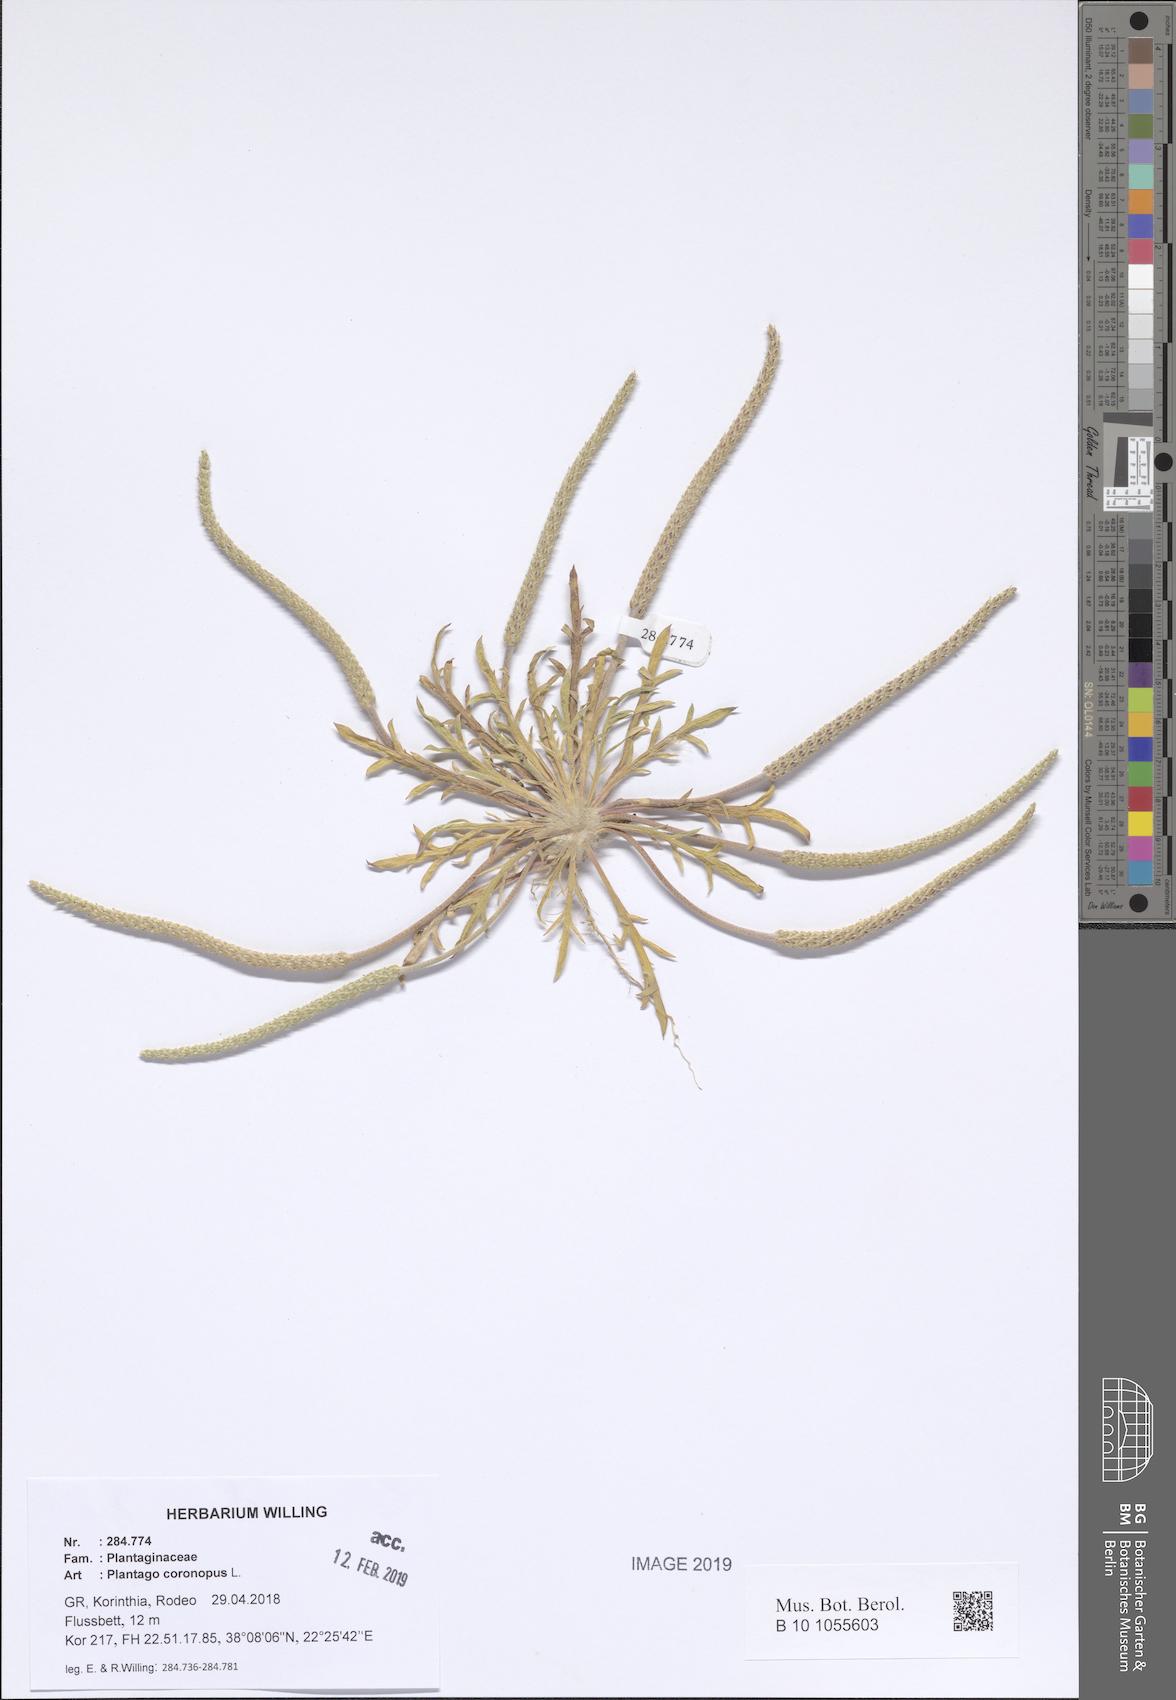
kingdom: Plantae
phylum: Tracheophyta
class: Magnoliopsida
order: Lamiales
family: Plantaginaceae
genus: Plantago
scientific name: Plantago coronopus
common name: Buck's-horn plantain
